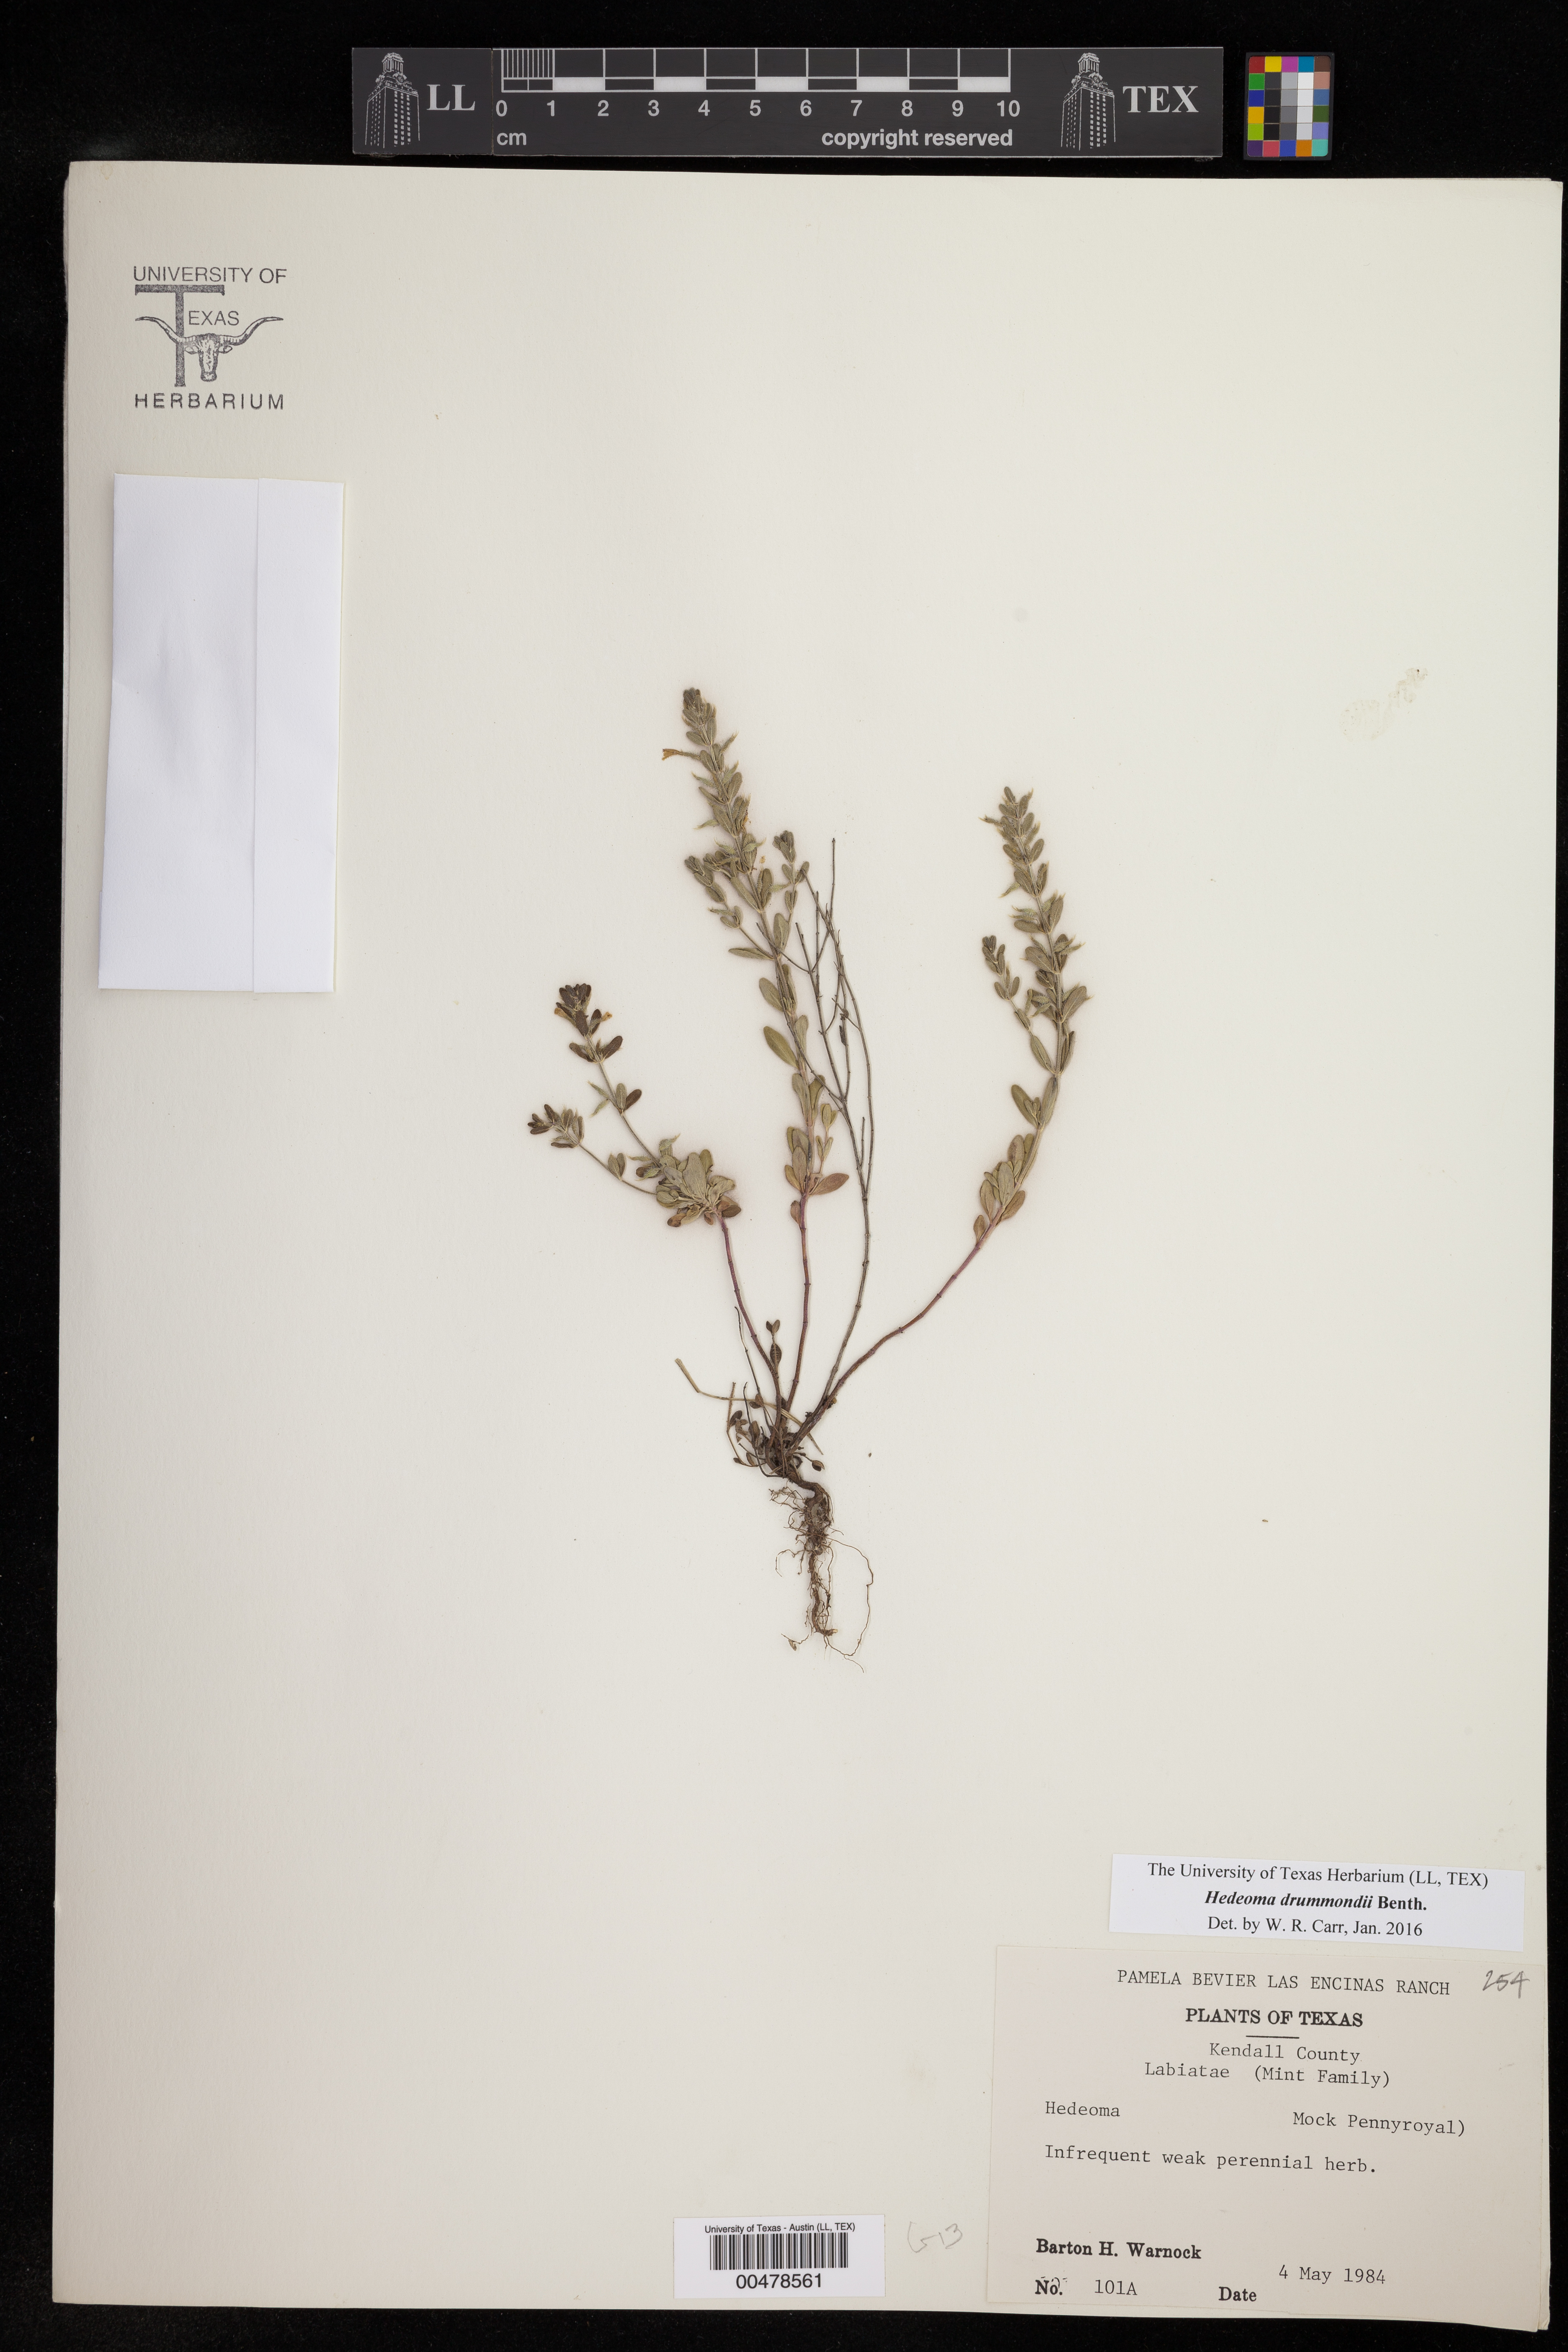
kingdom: Plantae
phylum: Tracheophyta
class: Magnoliopsida
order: Lamiales
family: Lamiaceae
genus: Hedeoma
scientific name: Hedeoma drummondii
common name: New mexico pennyroyal
